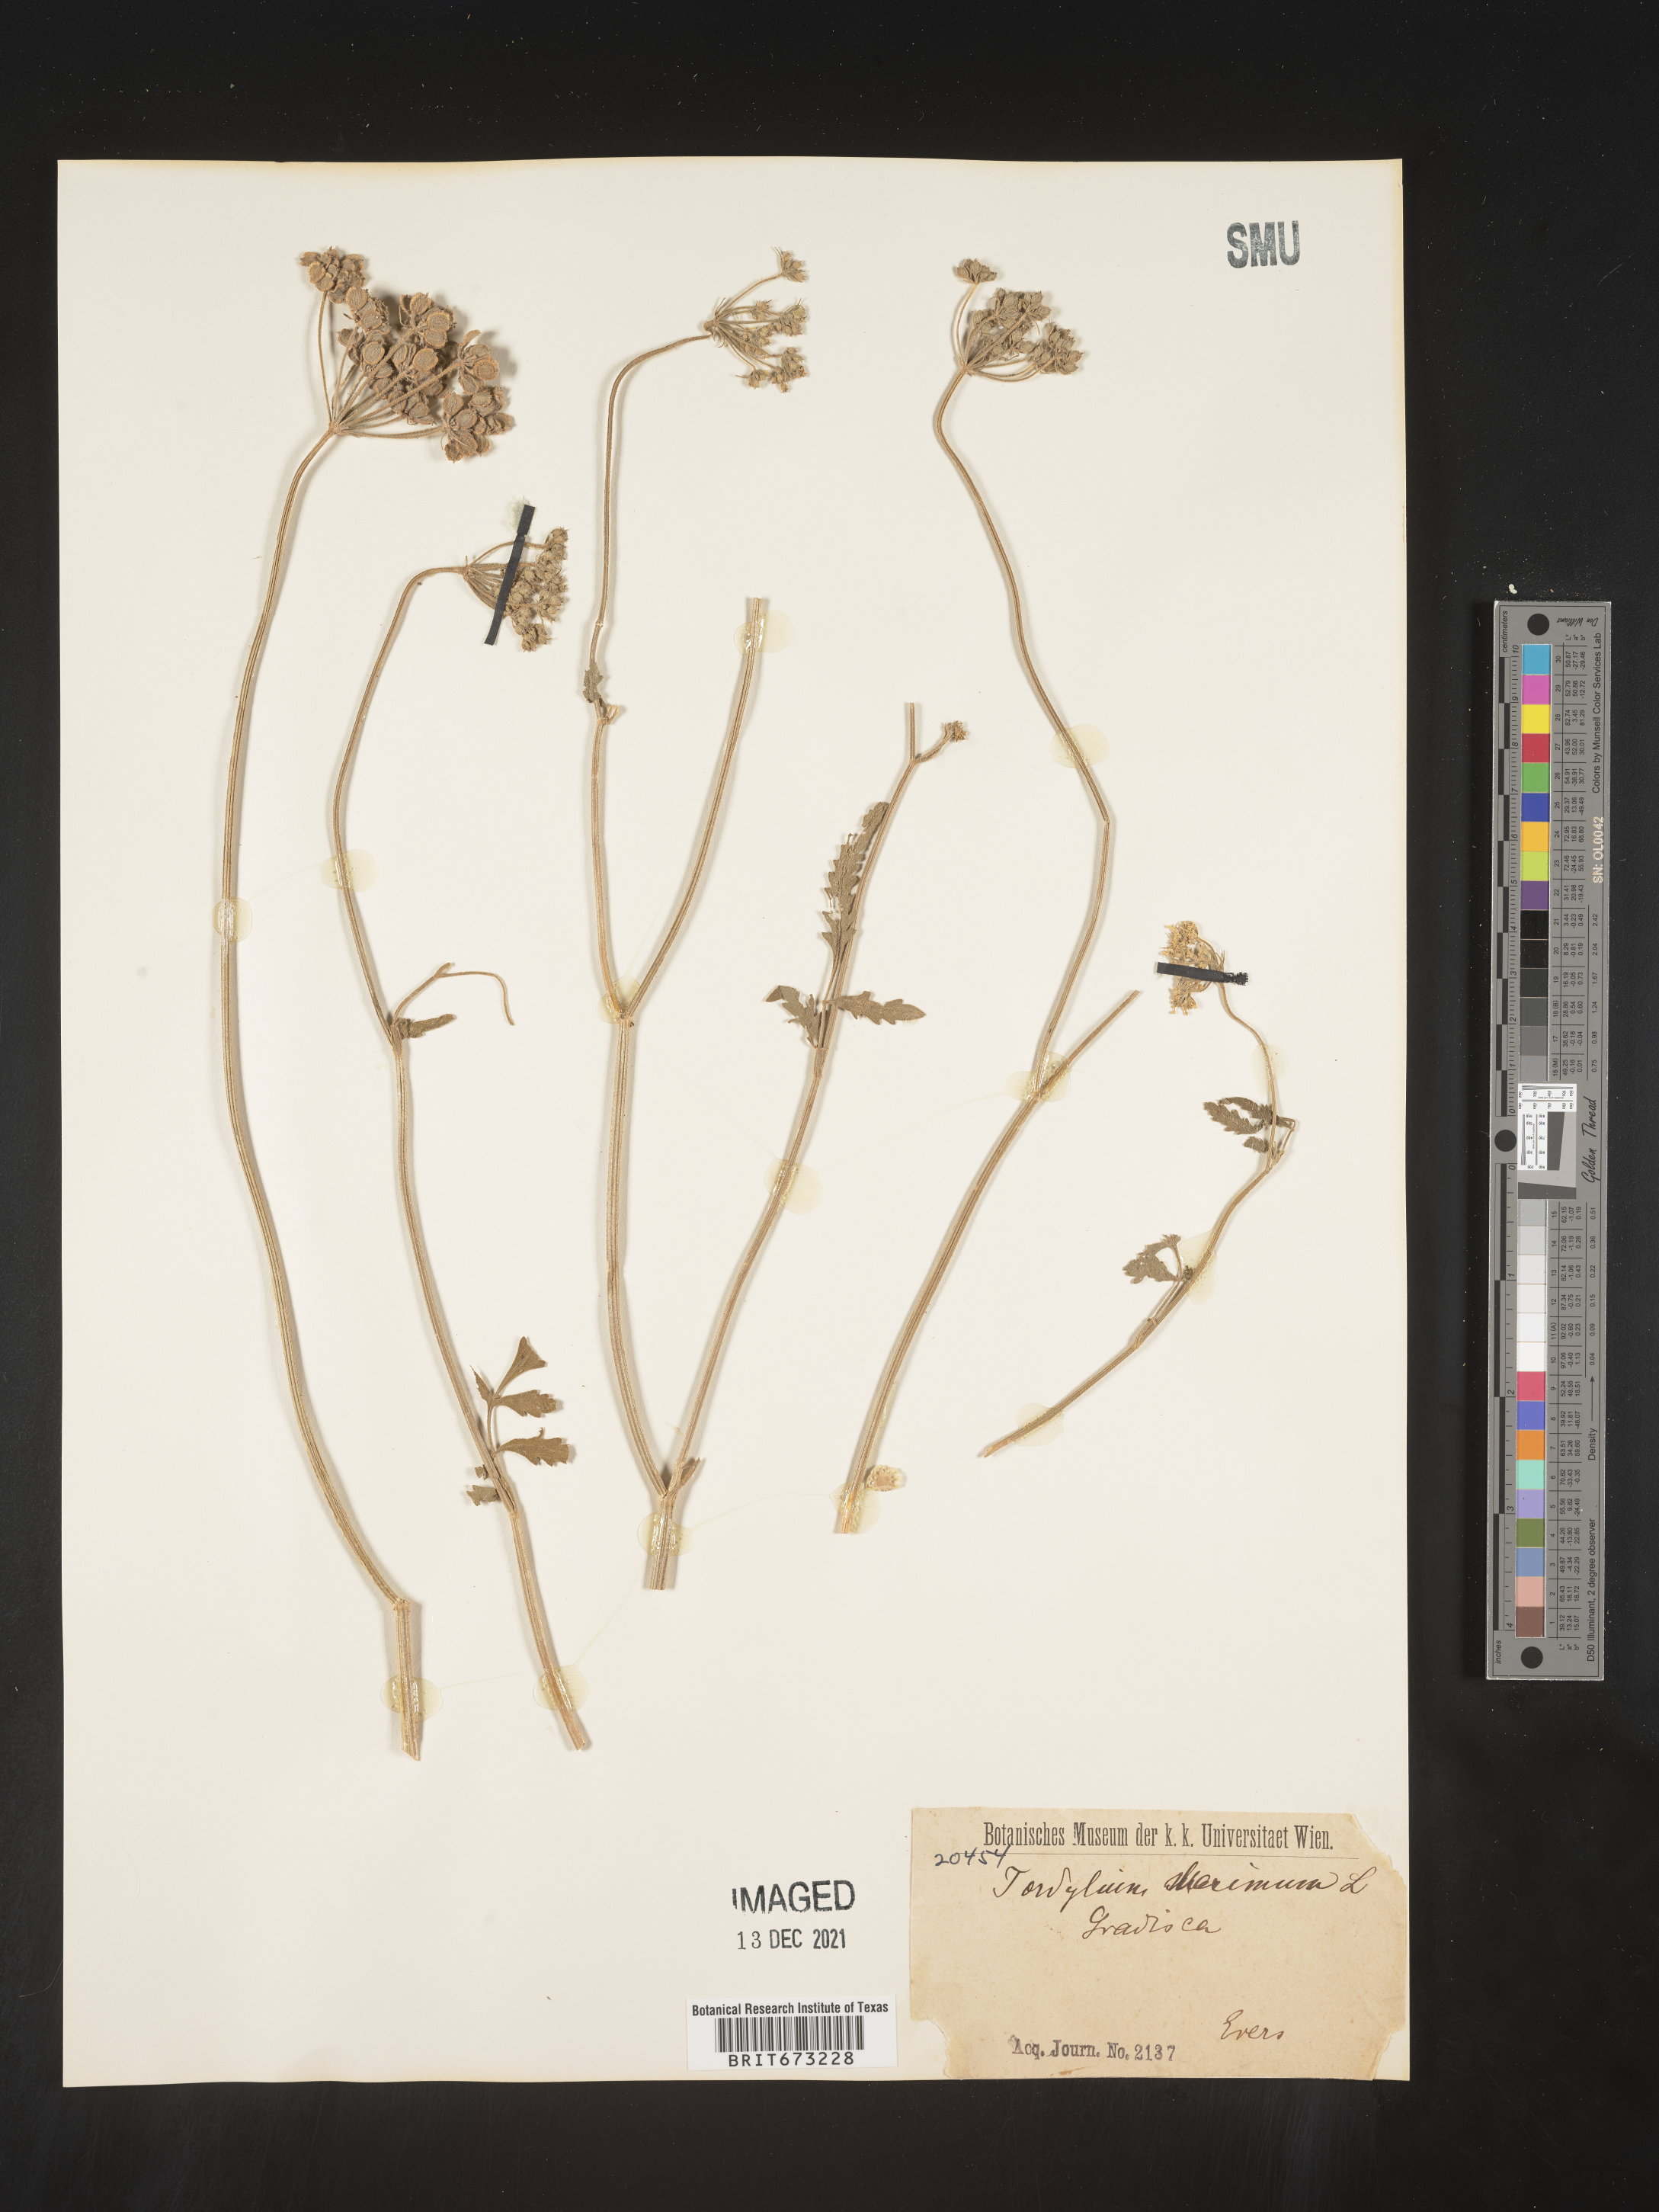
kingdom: Plantae
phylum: Tracheophyta
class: Magnoliopsida
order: Apiales
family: Apiaceae
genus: Tordylium
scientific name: Tordylium
